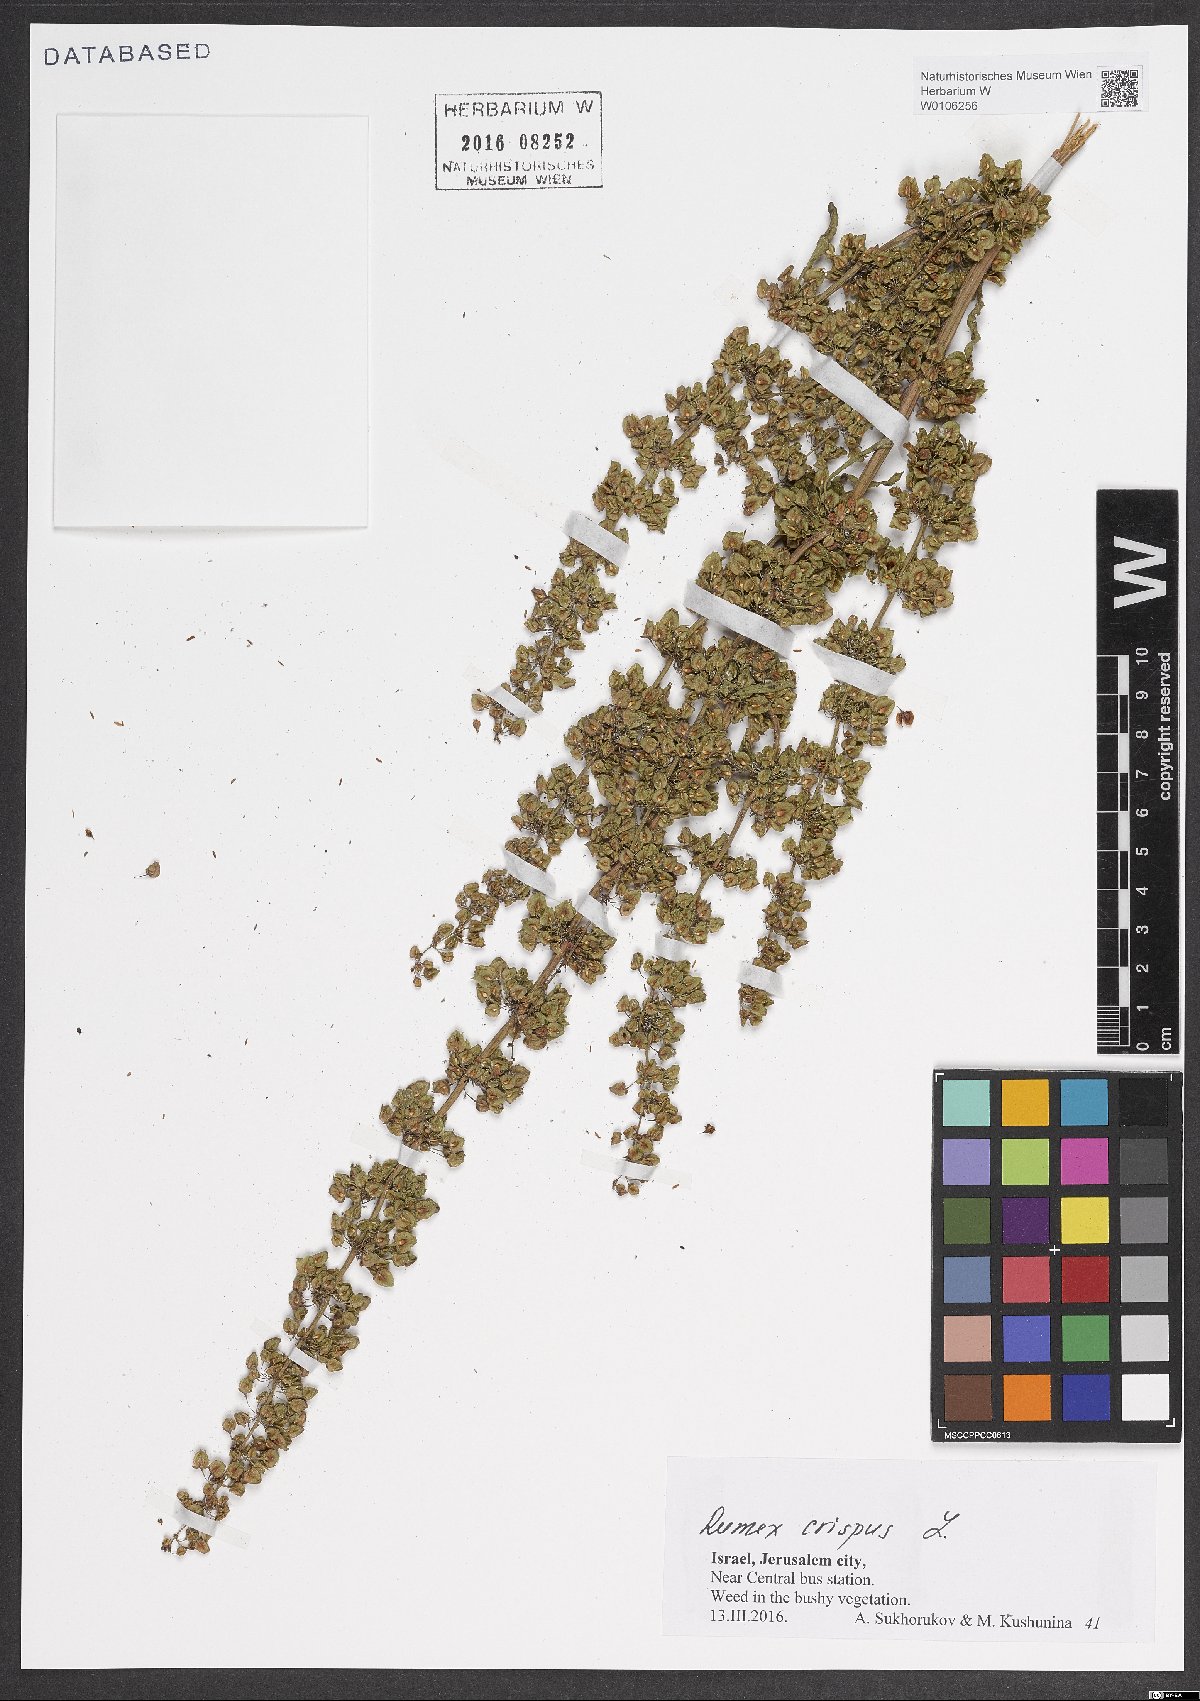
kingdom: Plantae
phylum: Tracheophyta
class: Magnoliopsida
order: Caryophyllales
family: Polygonaceae
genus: Rumex
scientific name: Rumex crispus
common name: Curled dock
